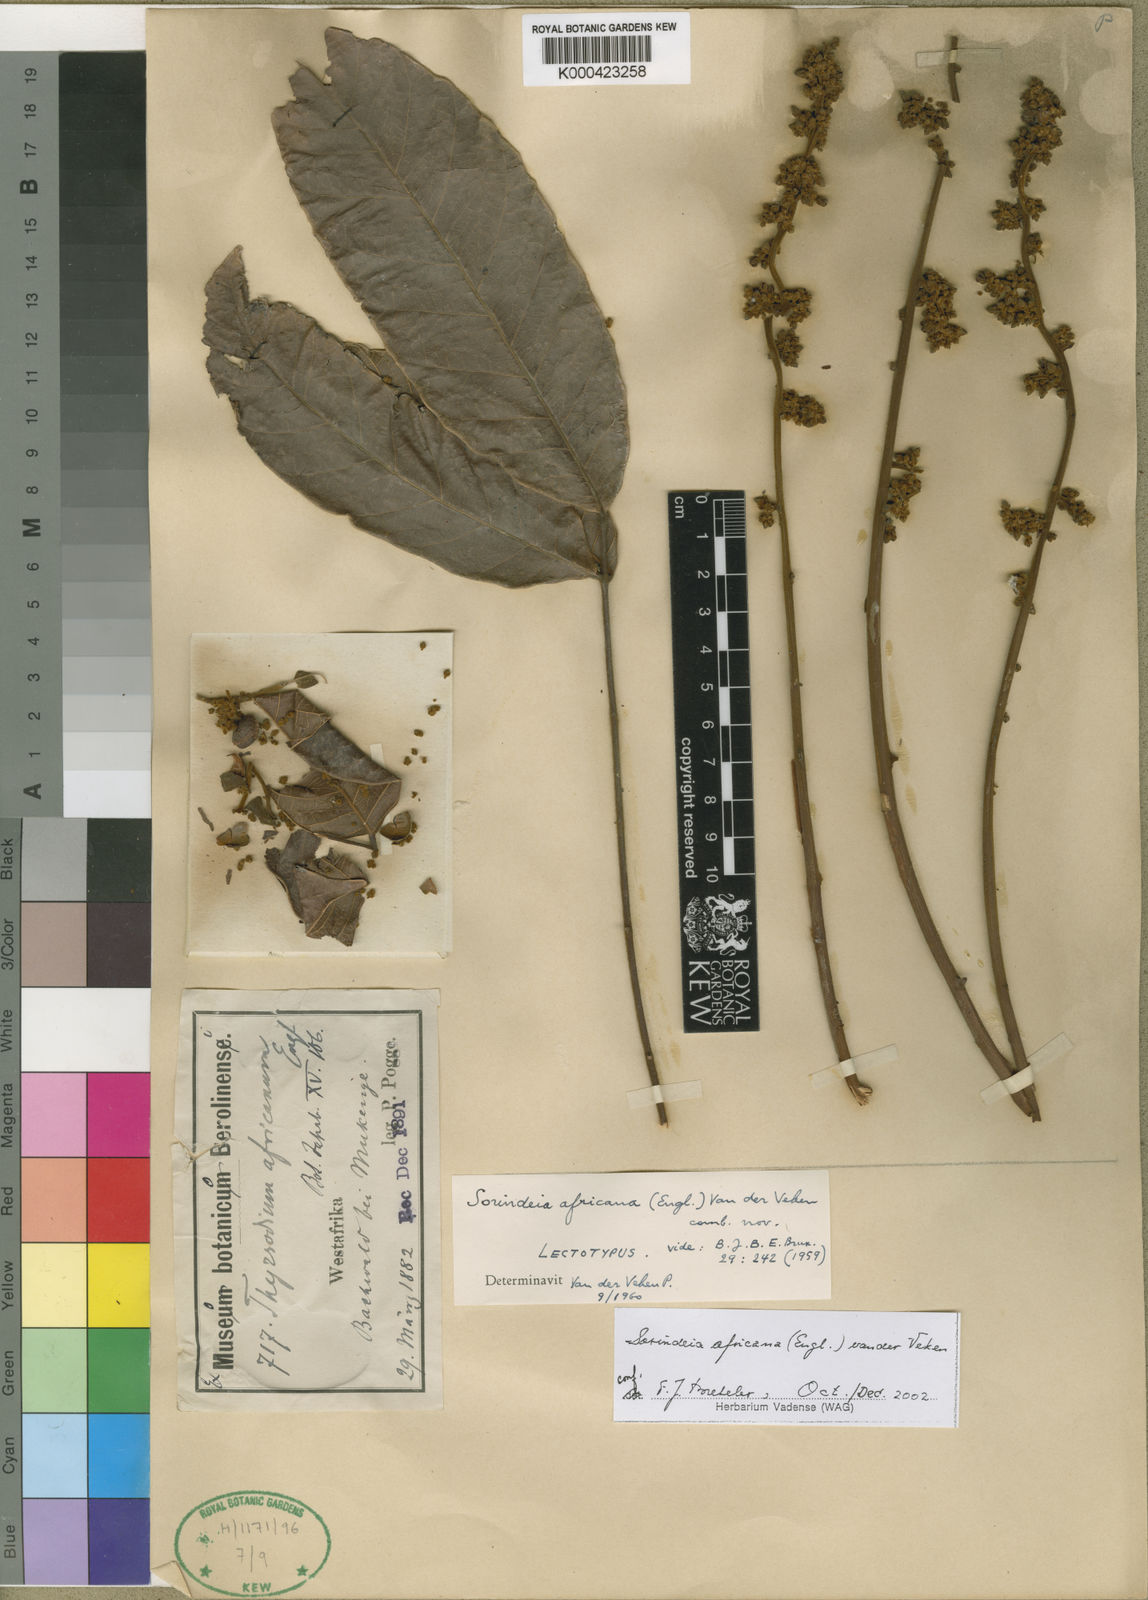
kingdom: Plantae
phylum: Tracheophyta
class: Magnoliopsida
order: Sapindales
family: Anacardiaceae
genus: Sorindeia
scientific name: Sorindeia africana
